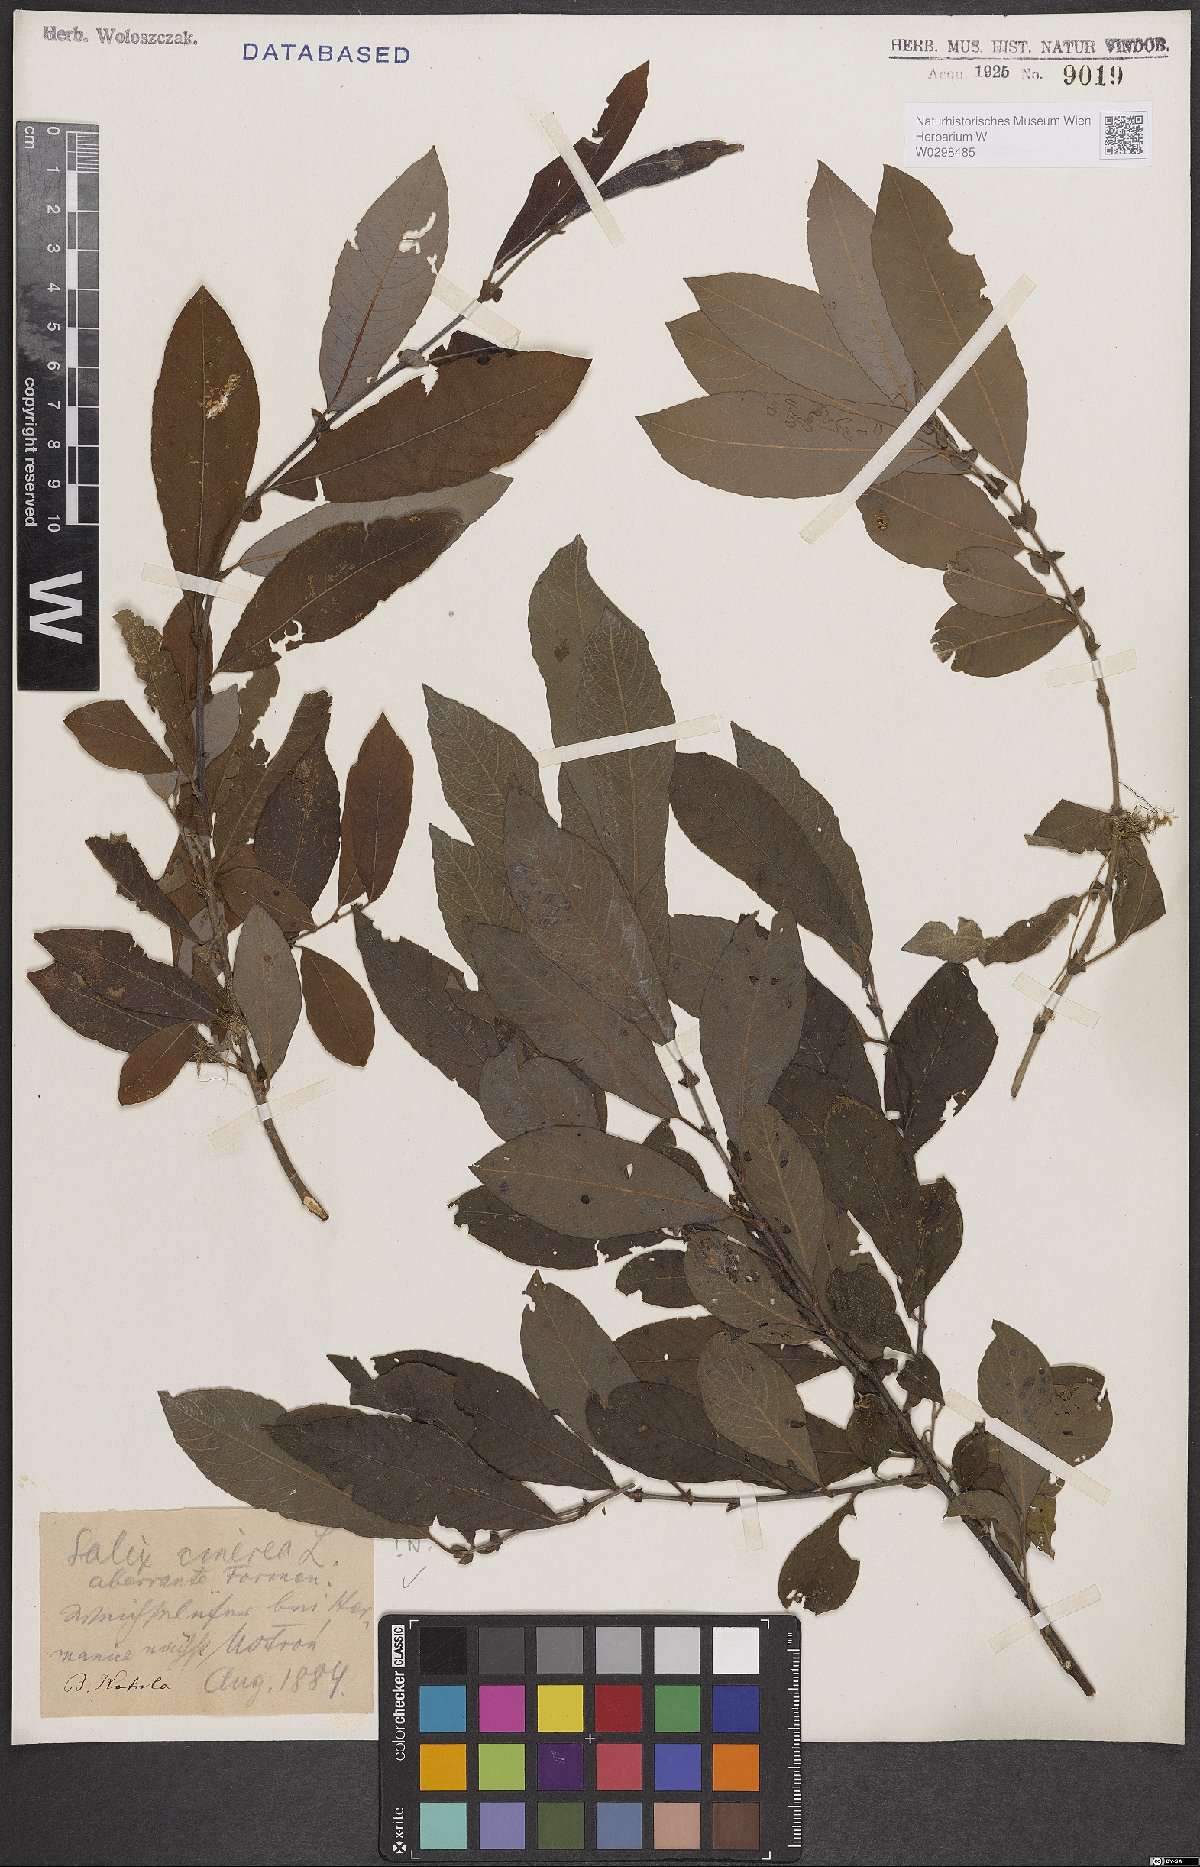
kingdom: Plantae
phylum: Tracheophyta
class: Magnoliopsida
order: Malpighiales
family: Salicaceae
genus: Salix
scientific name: Salix cinerea
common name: Common sallow
